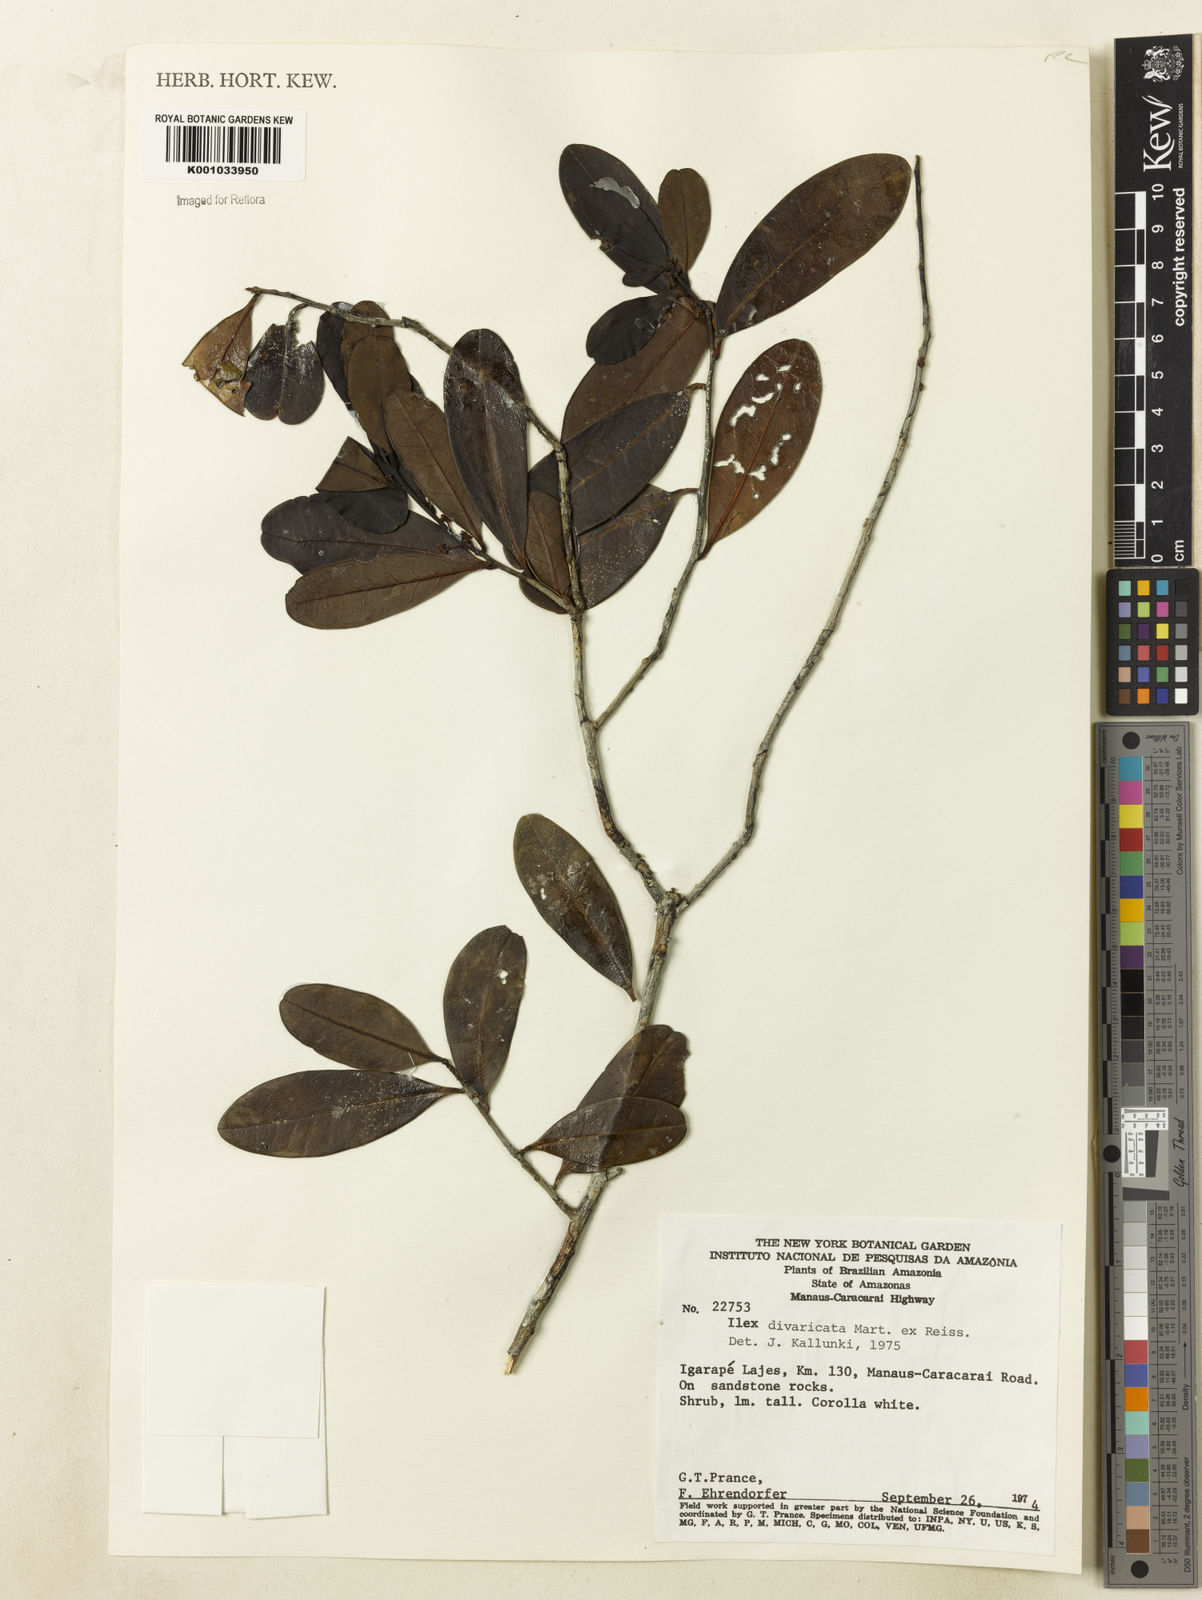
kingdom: Plantae
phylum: Tracheophyta
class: Magnoliopsida
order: Aquifoliales
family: Aquifoliaceae
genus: Ilex
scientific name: Ilex divaricata
